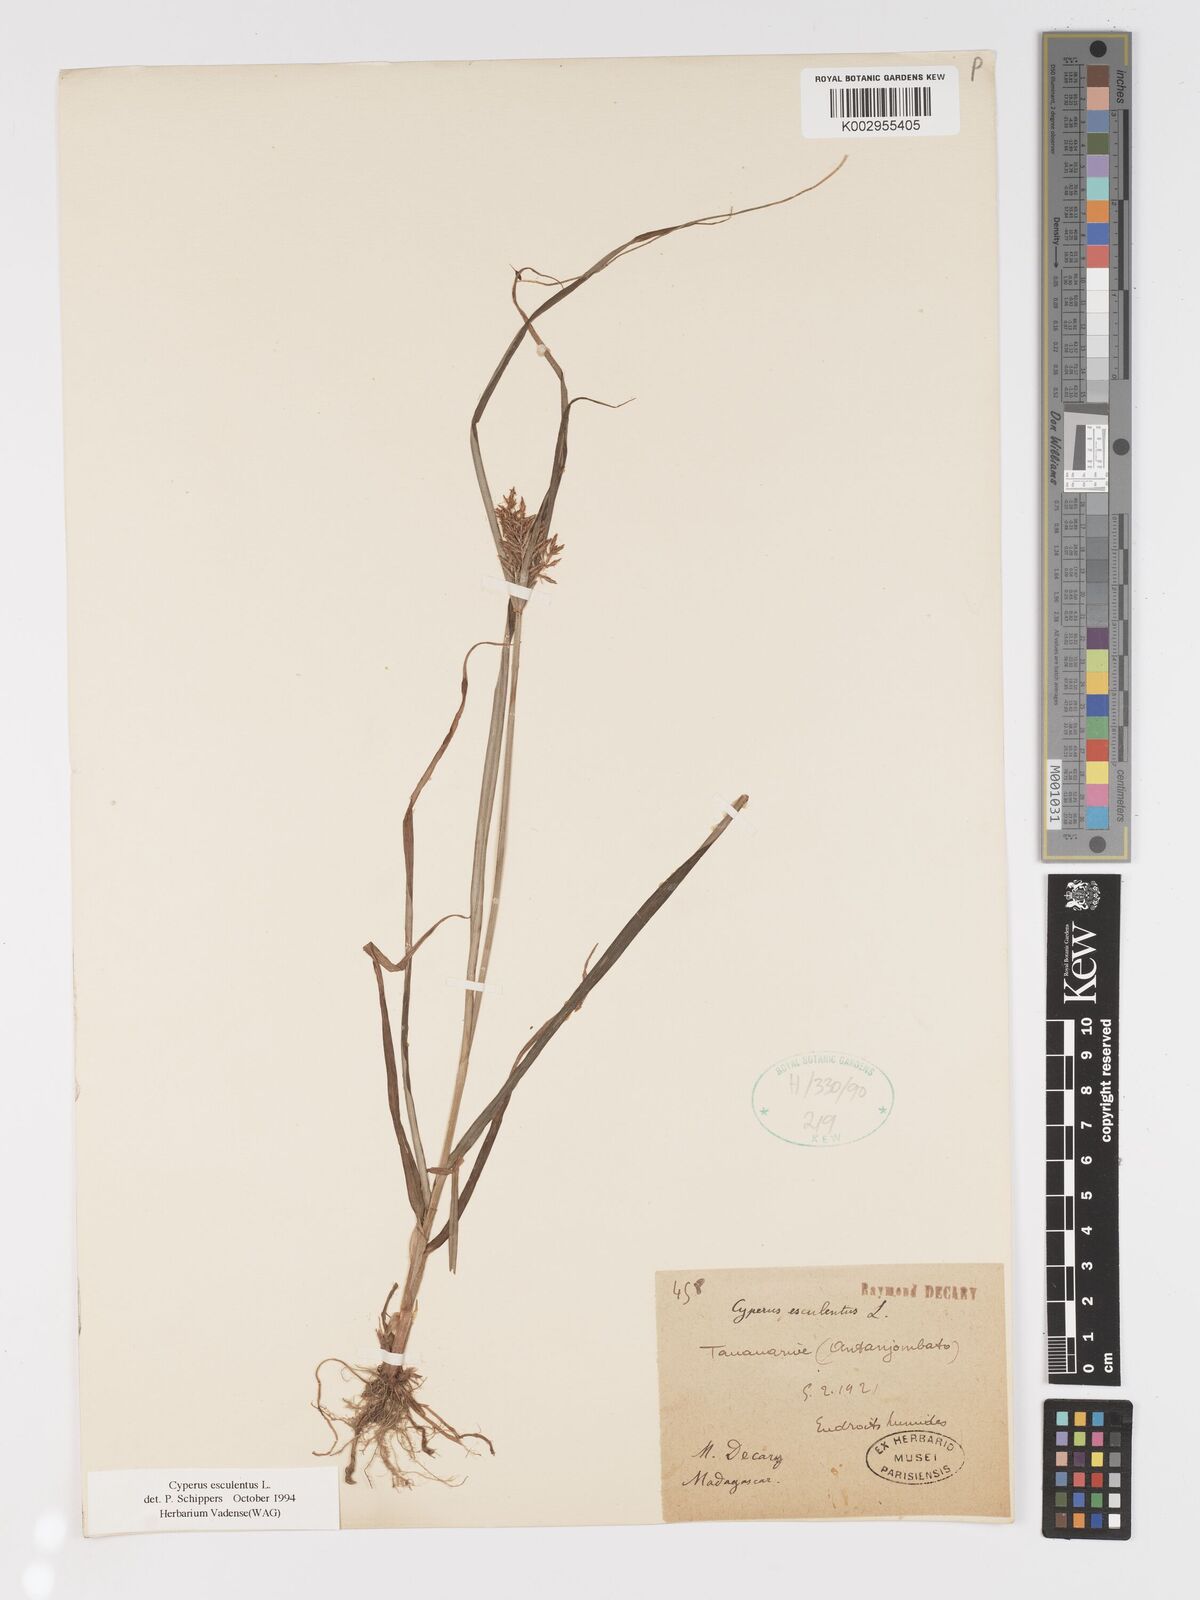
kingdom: Plantae
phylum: Tracheophyta
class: Liliopsida
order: Poales
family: Cyperaceae
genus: Cyperus
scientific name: Cyperus esculentus
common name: Yellow nutsedge
